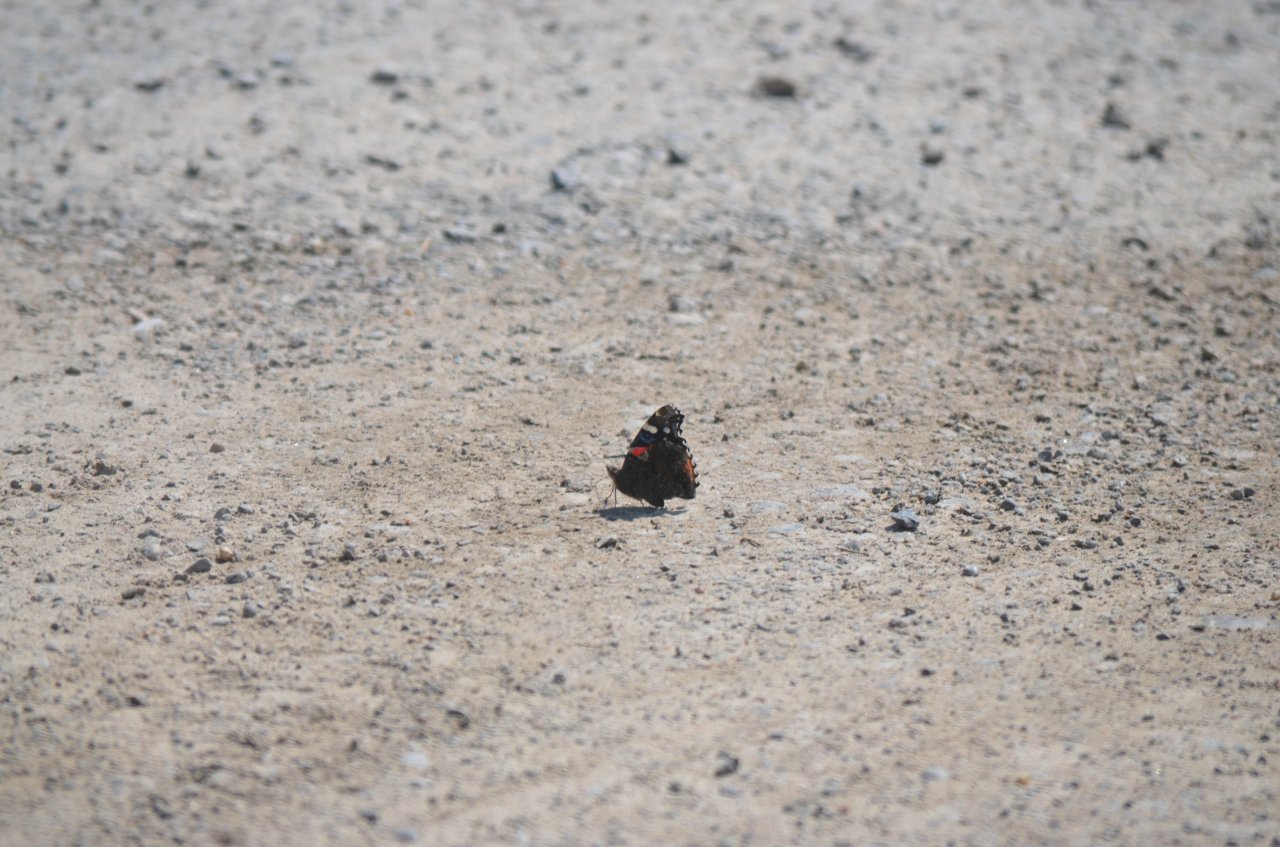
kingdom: Animalia
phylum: Arthropoda
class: Insecta
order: Lepidoptera
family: Nymphalidae
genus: Vanessa
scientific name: Vanessa atalanta
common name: Red Admiral
